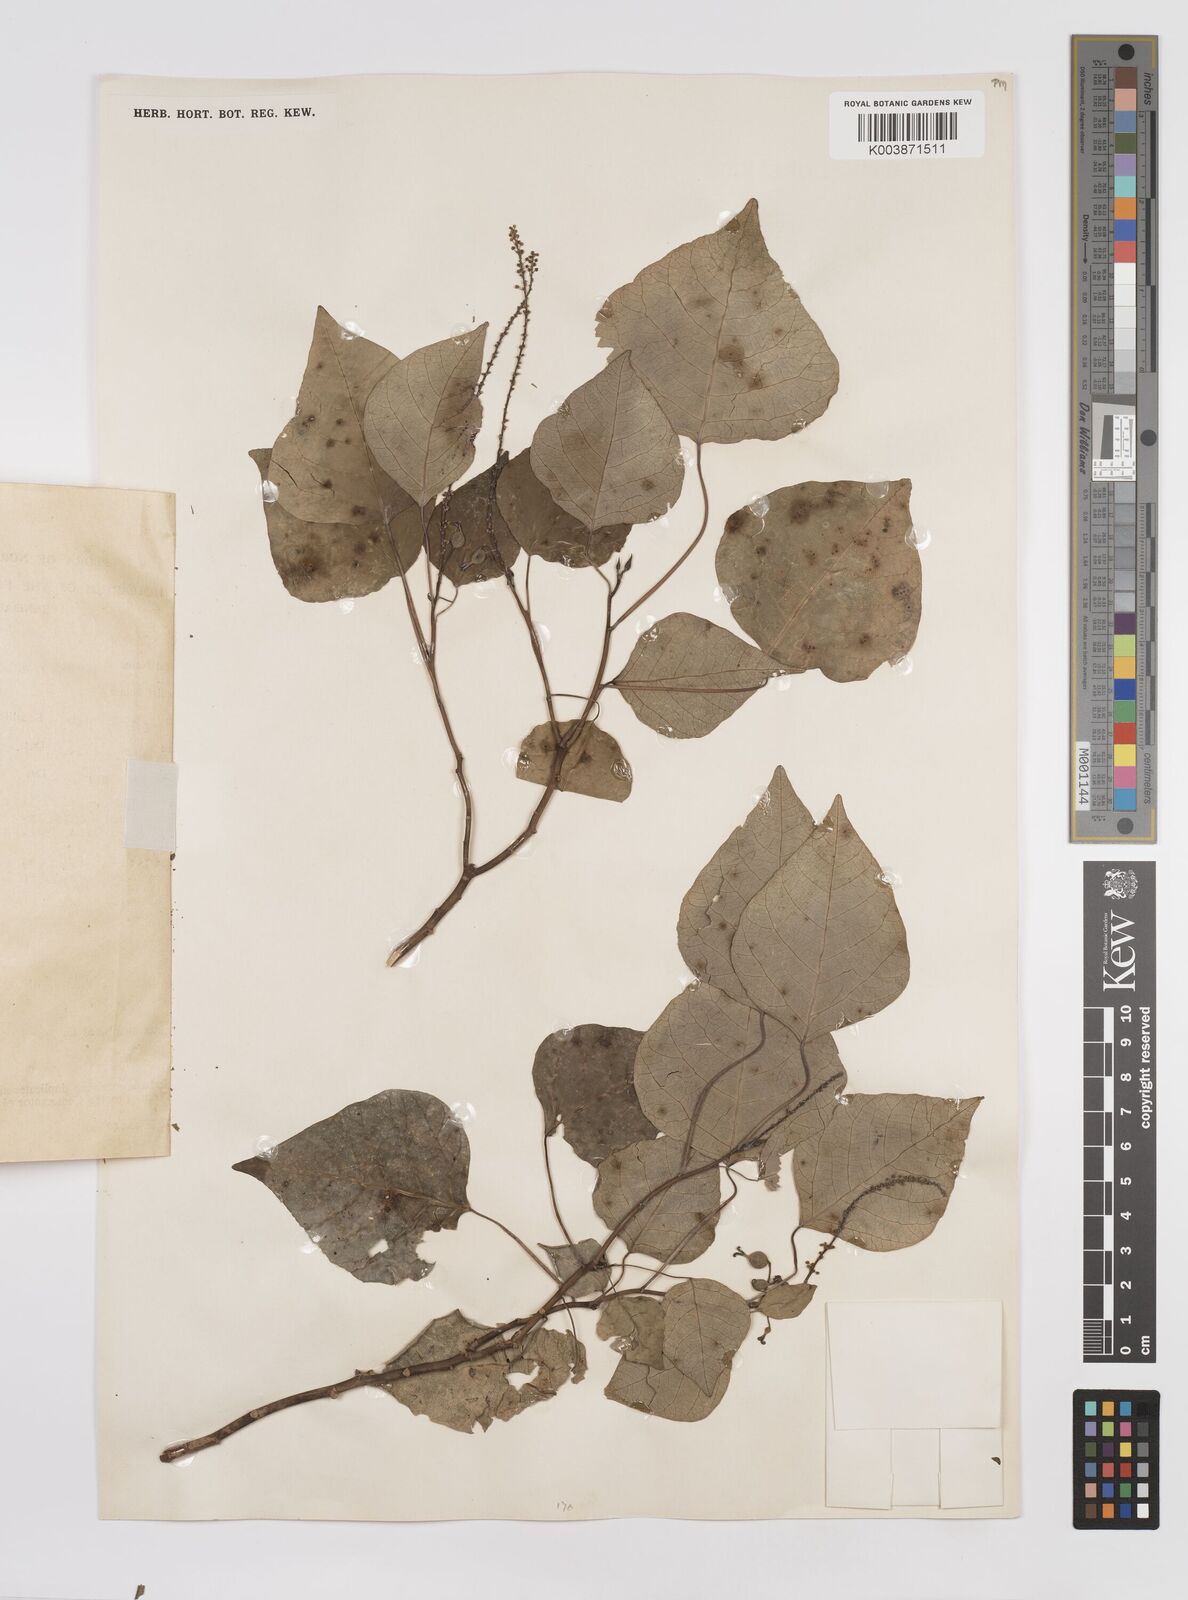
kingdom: Plantae
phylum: Tracheophyta
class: Magnoliopsida
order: Malpighiales
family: Euphorbiaceae
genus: Homalanthus
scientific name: Homalanthus populneus
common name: Spurge
